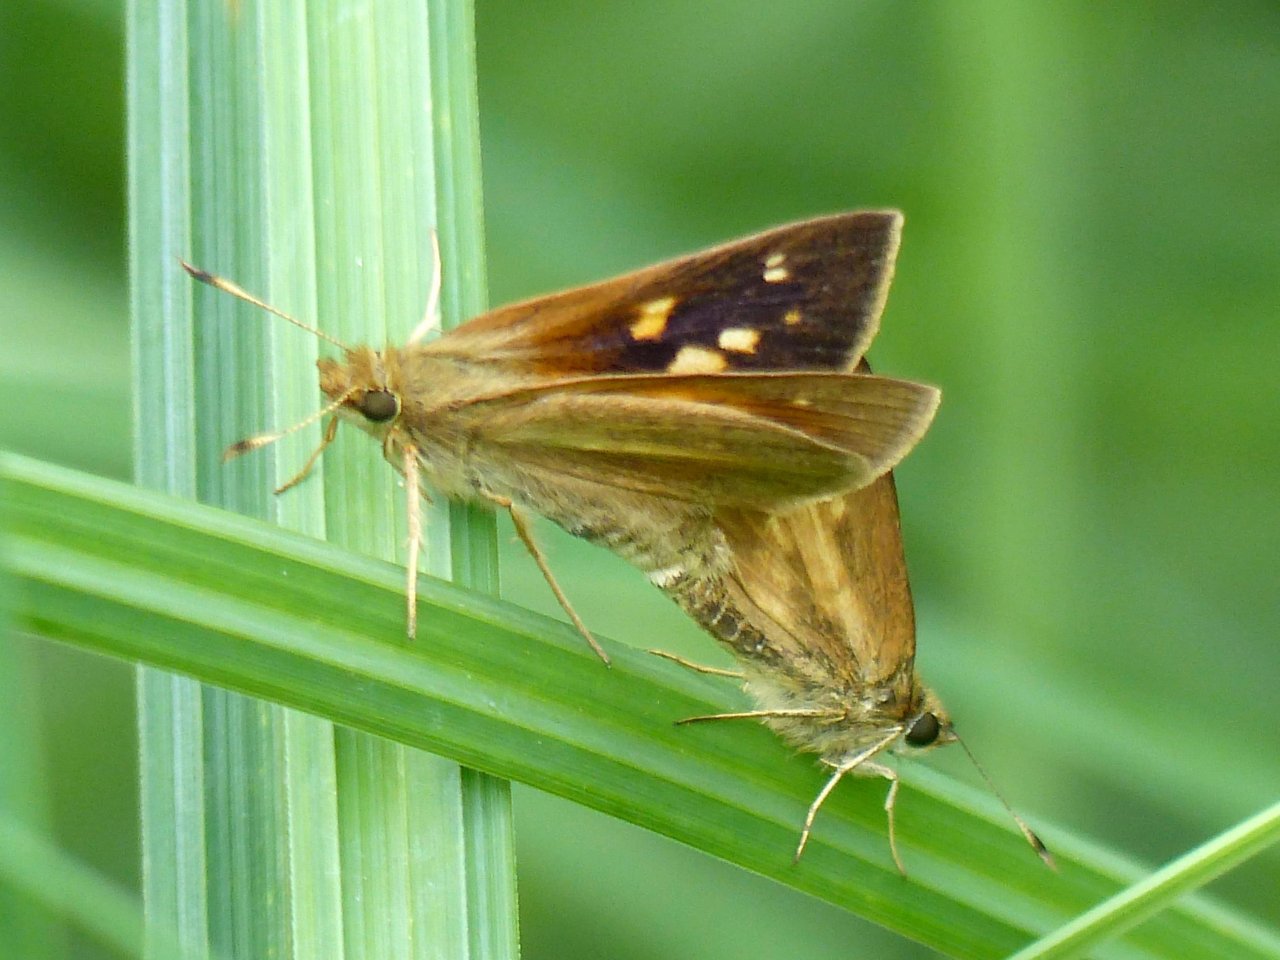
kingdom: Animalia
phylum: Arthropoda
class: Insecta
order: Lepidoptera
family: Hesperiidae
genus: Poanes
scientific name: Poanes viator
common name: Broad-winged Skipper
